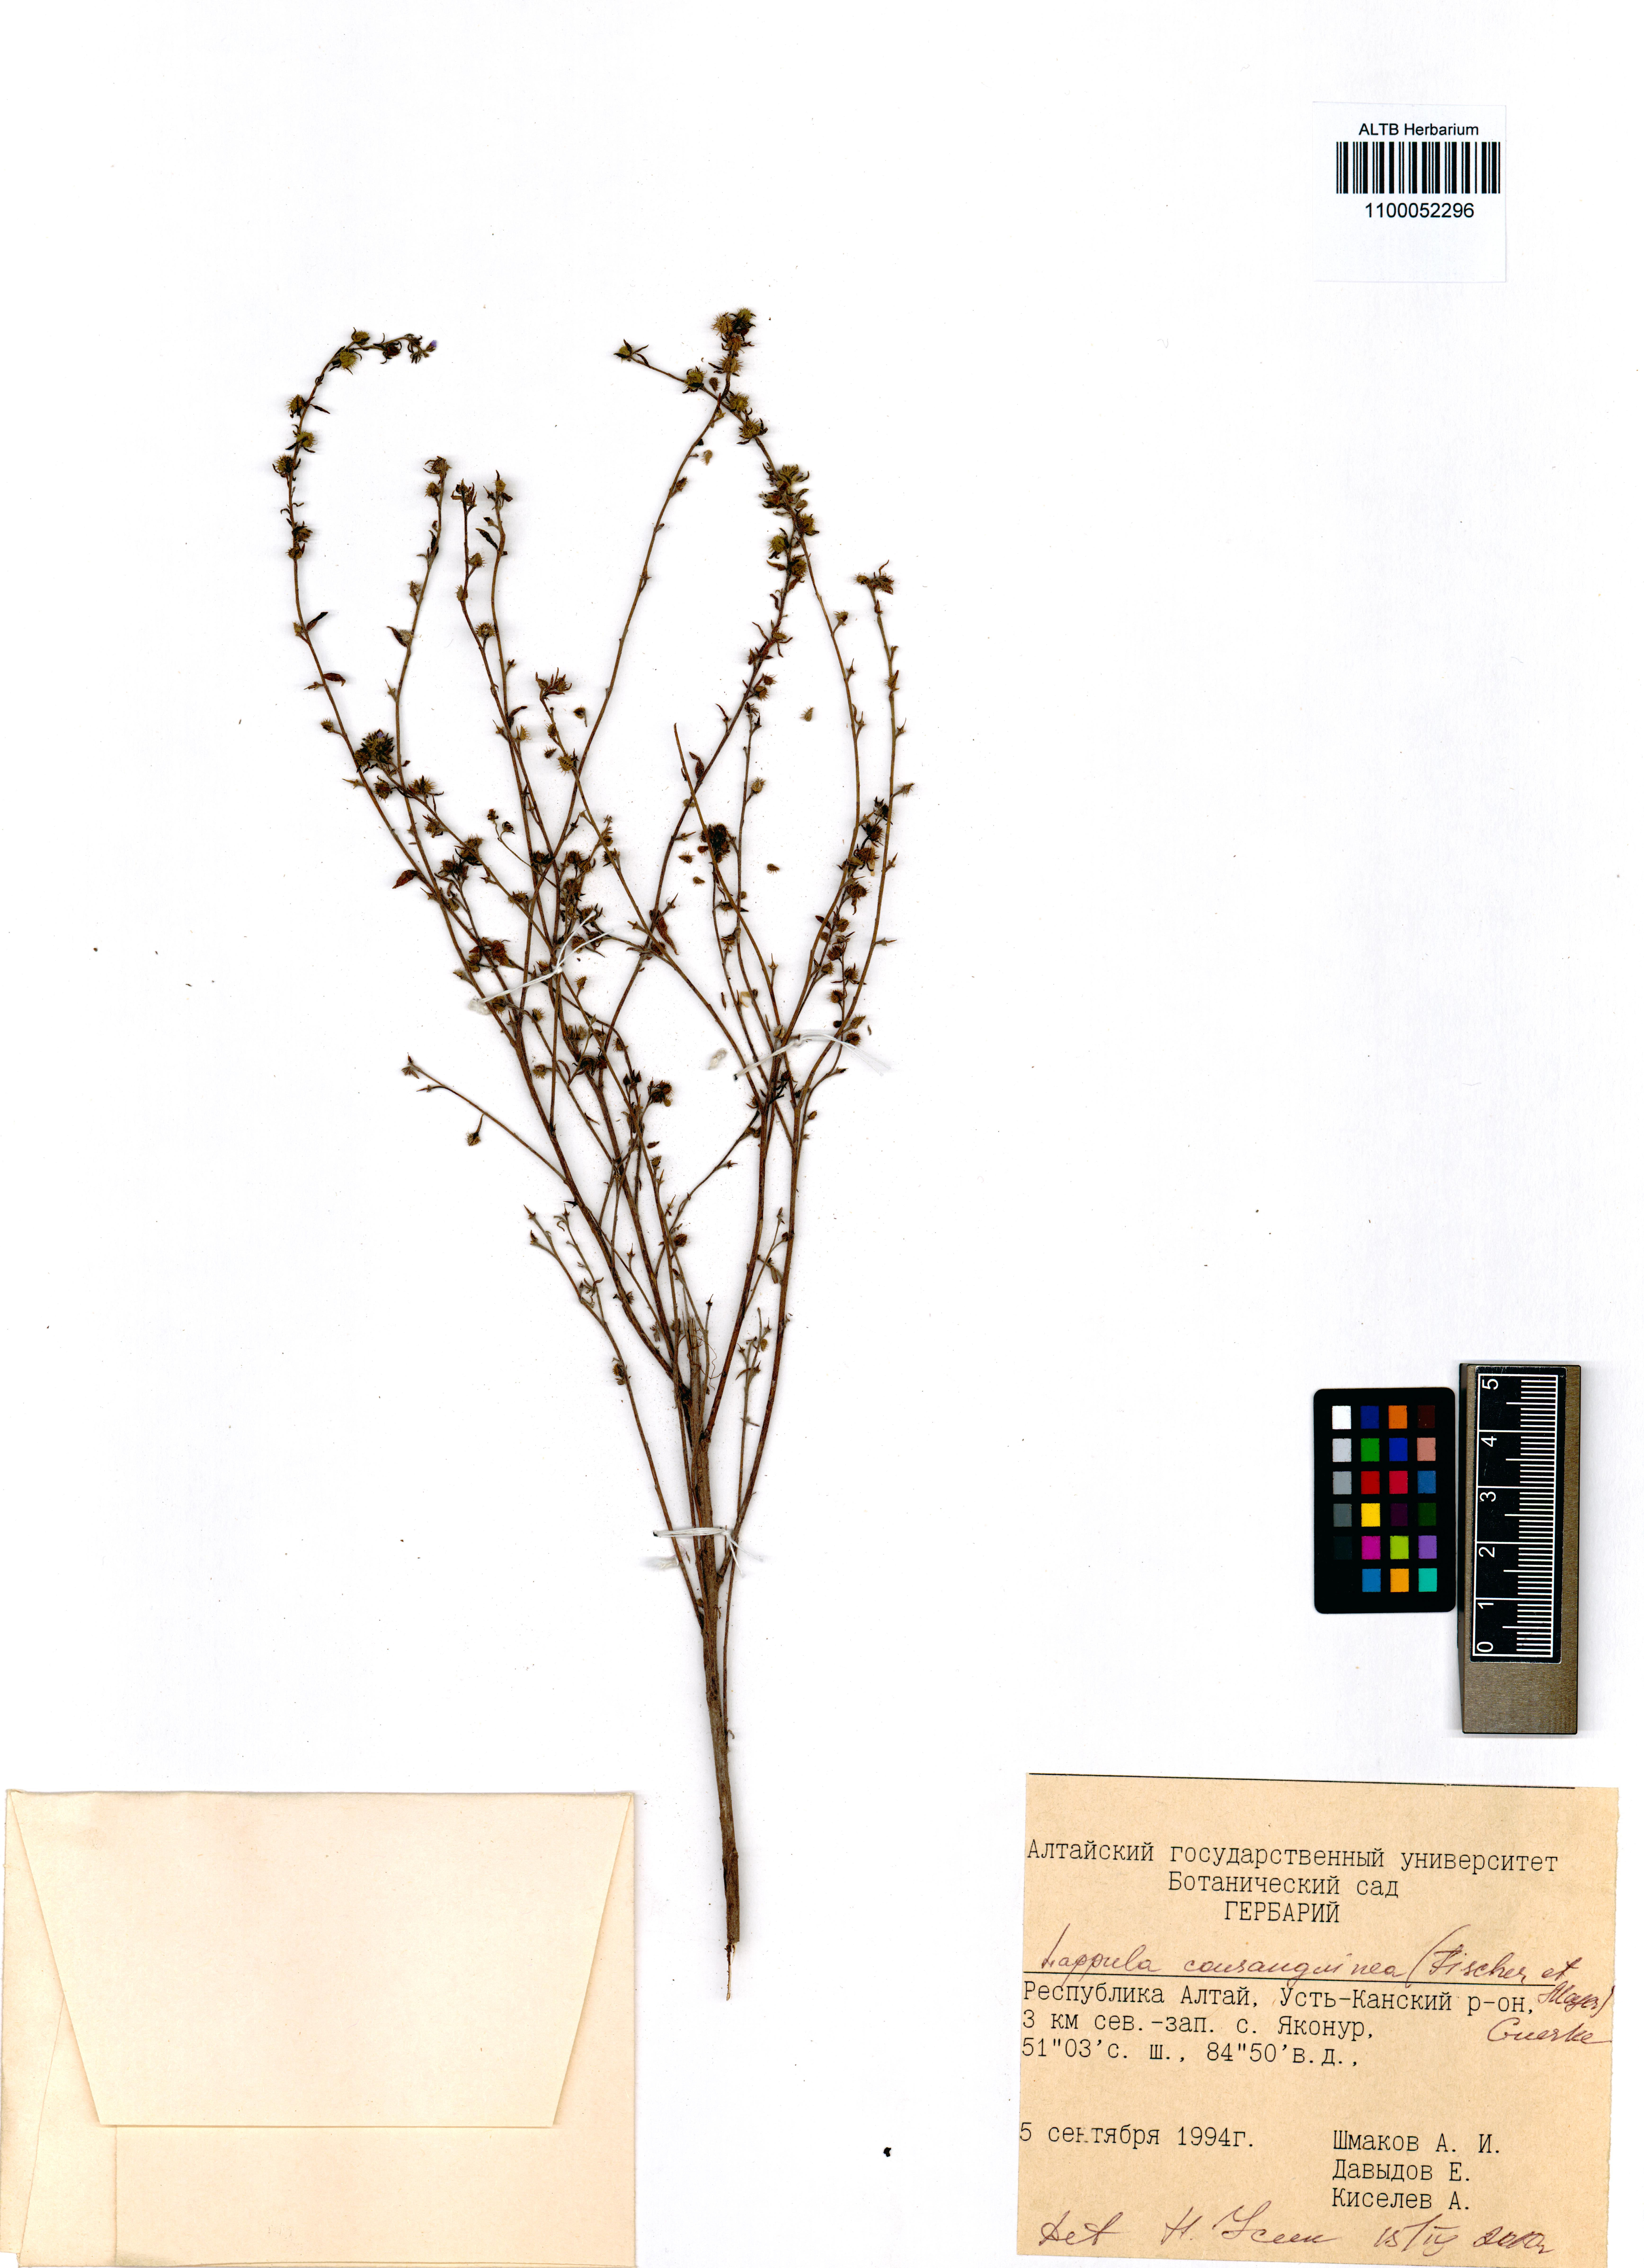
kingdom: Plantae
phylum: Tracheophyta
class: Magnoliopsida
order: Boraginales
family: Boraginaceae
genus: Lappula
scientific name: Lappula squarrosa
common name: European stickseed
